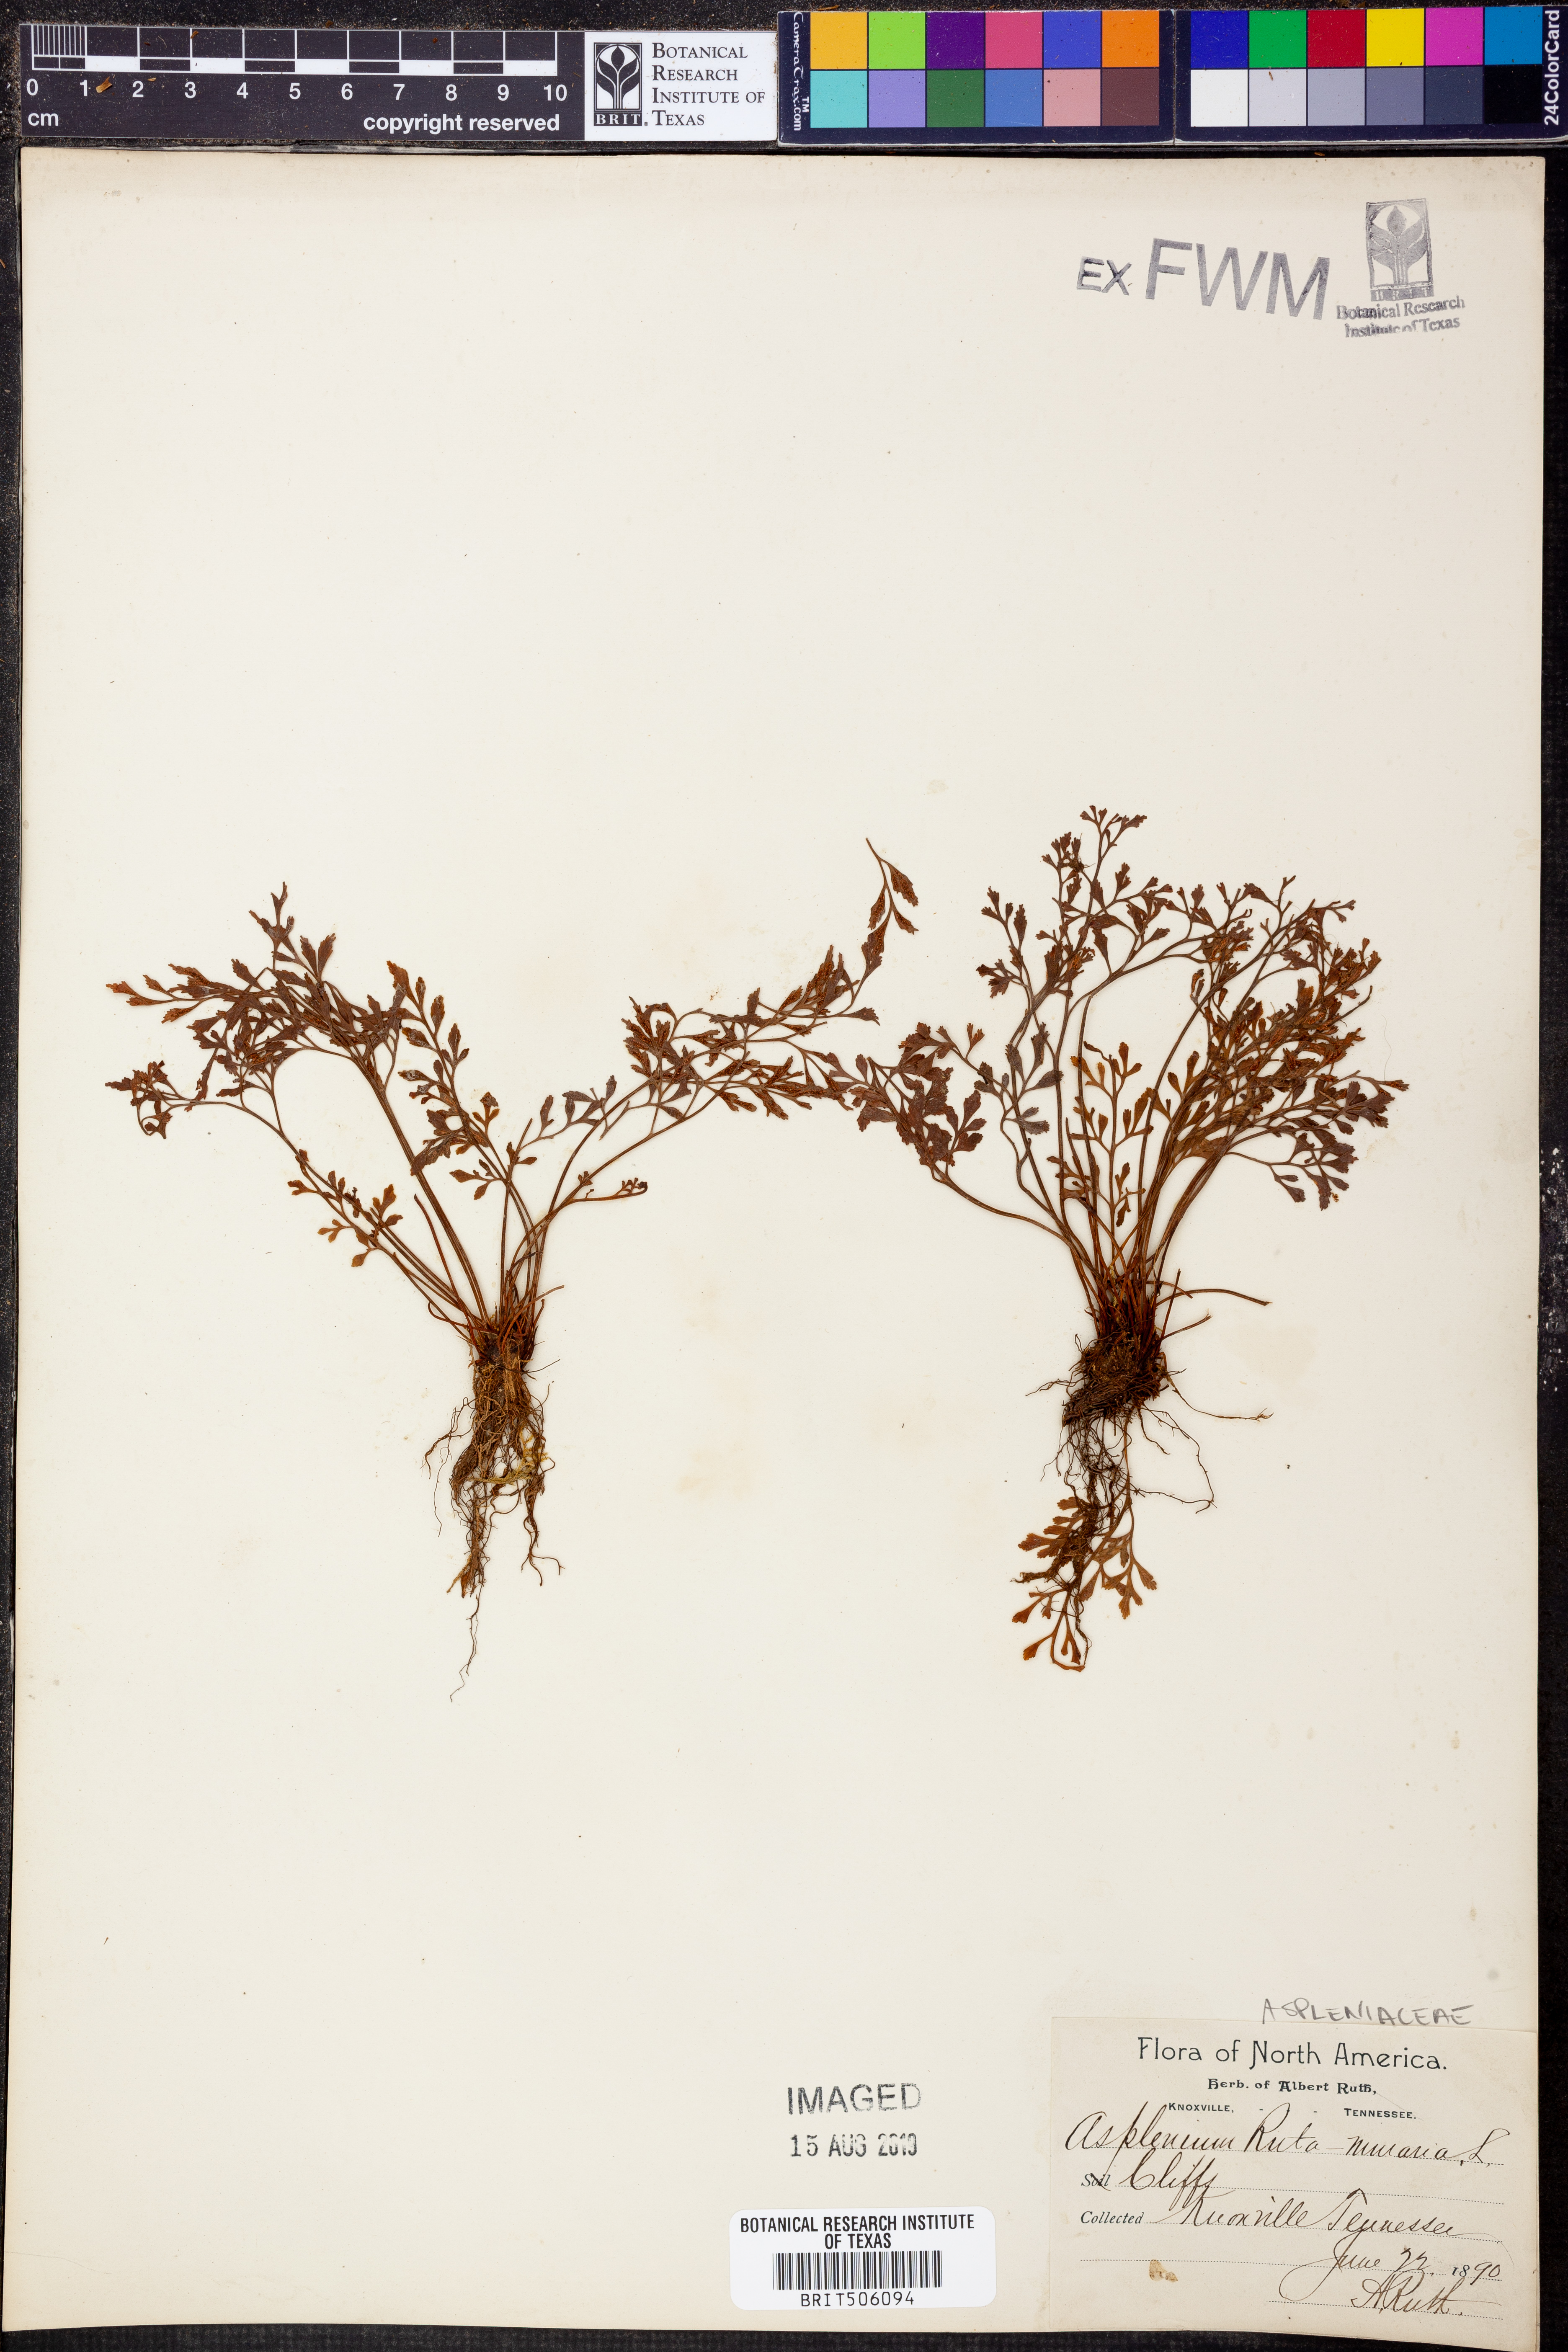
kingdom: Plantae
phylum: Tracheophyta
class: Polypodiopsida
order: Polypodiales
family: Aspleniaceae
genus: Asplenium
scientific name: Asplenium ruta-muraria
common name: Wall-rue
